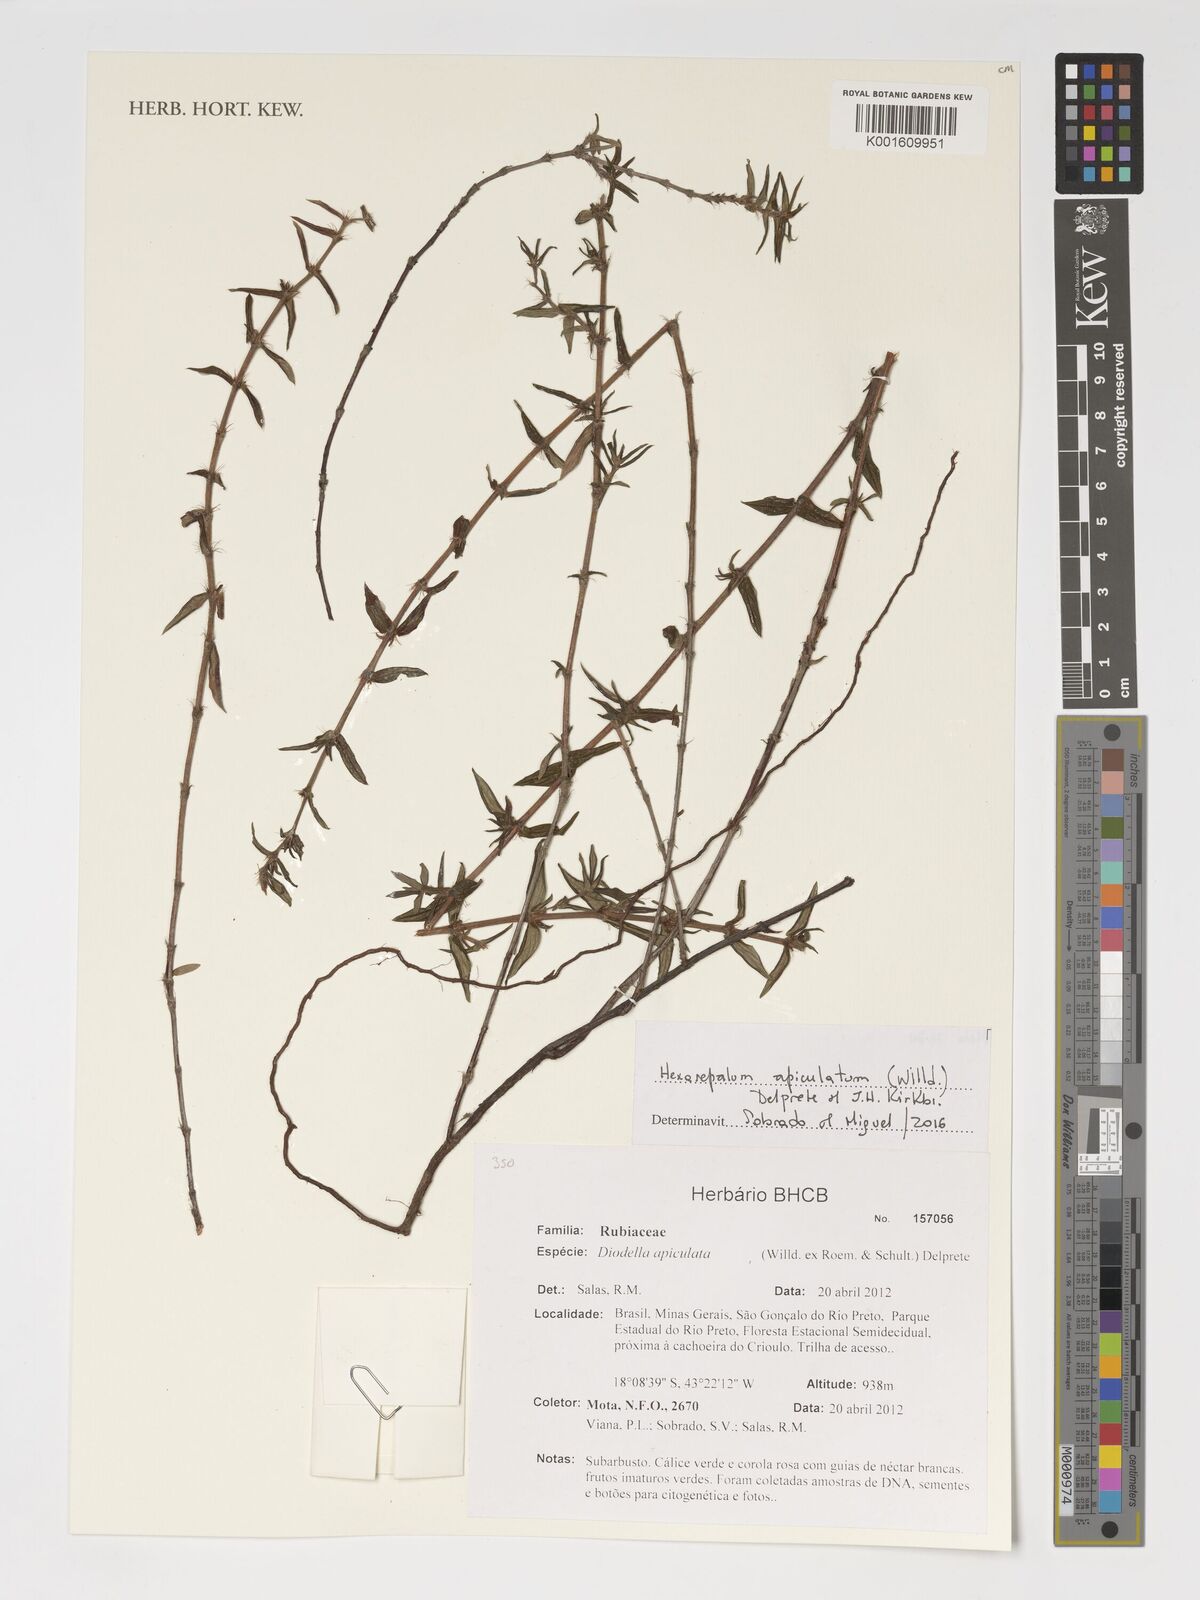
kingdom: Plantae
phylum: Tracheophyta
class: Magnoliopsida
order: Gentianales
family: Rubiaceae
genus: Hexasepalum
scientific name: Hexasepalum apiculatum
